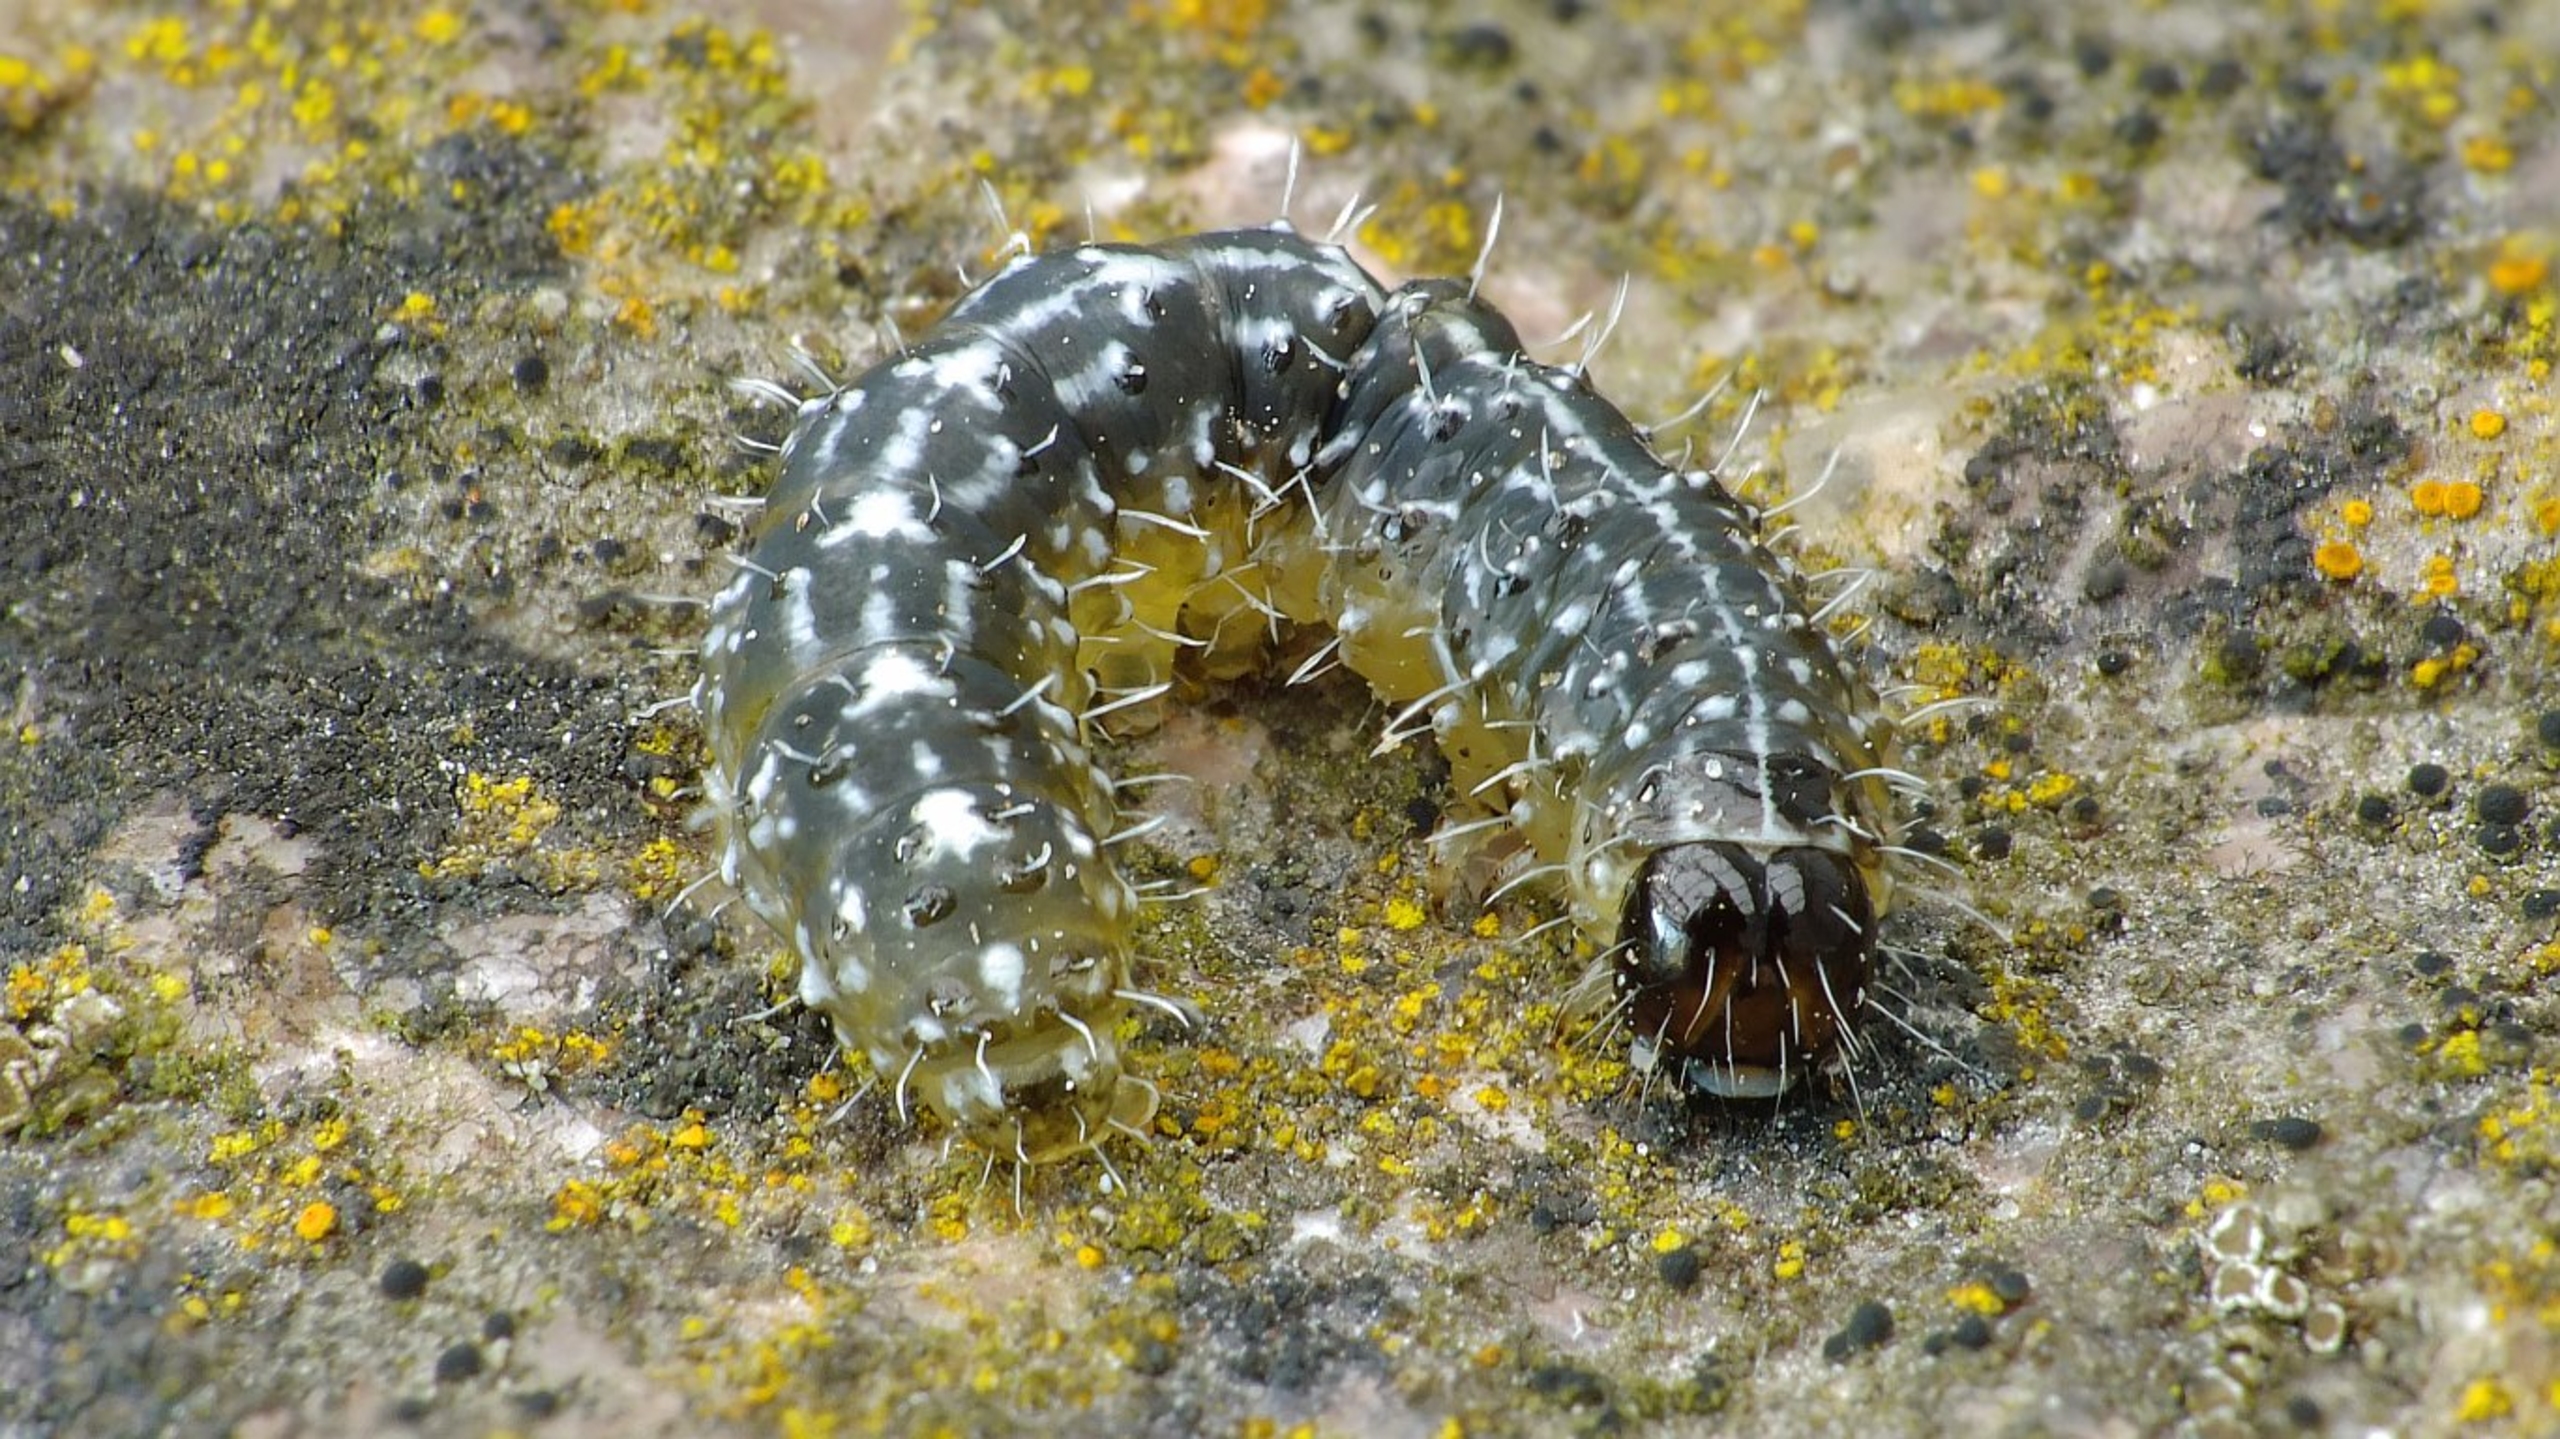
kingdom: Animalia
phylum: Arthropoda
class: Insecta
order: Lepidoptera
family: Noctuidae
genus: Nyctobrya
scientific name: Nyctobrya muralis
